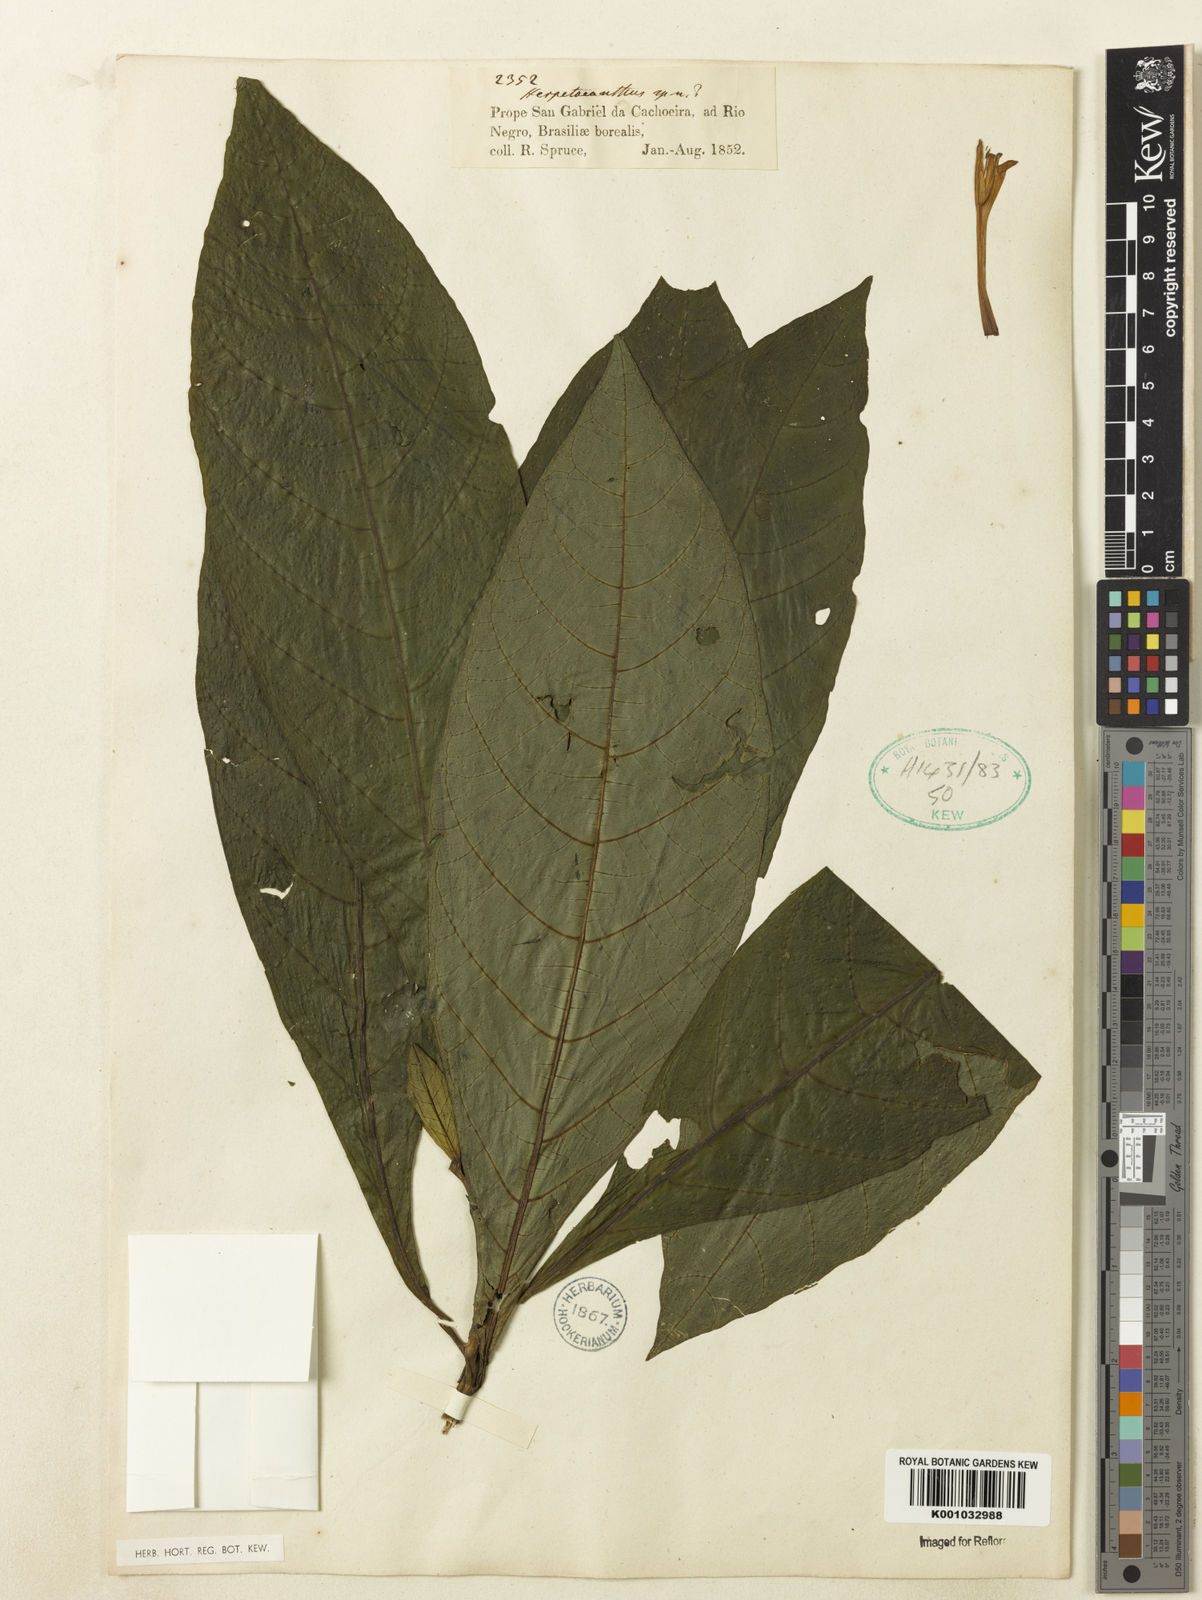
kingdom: Plantae
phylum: Tracheophyta
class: Magnoliopsida
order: Lamiales
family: Acanthaceae
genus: Herpetacanthus
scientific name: Herpetacanthus
